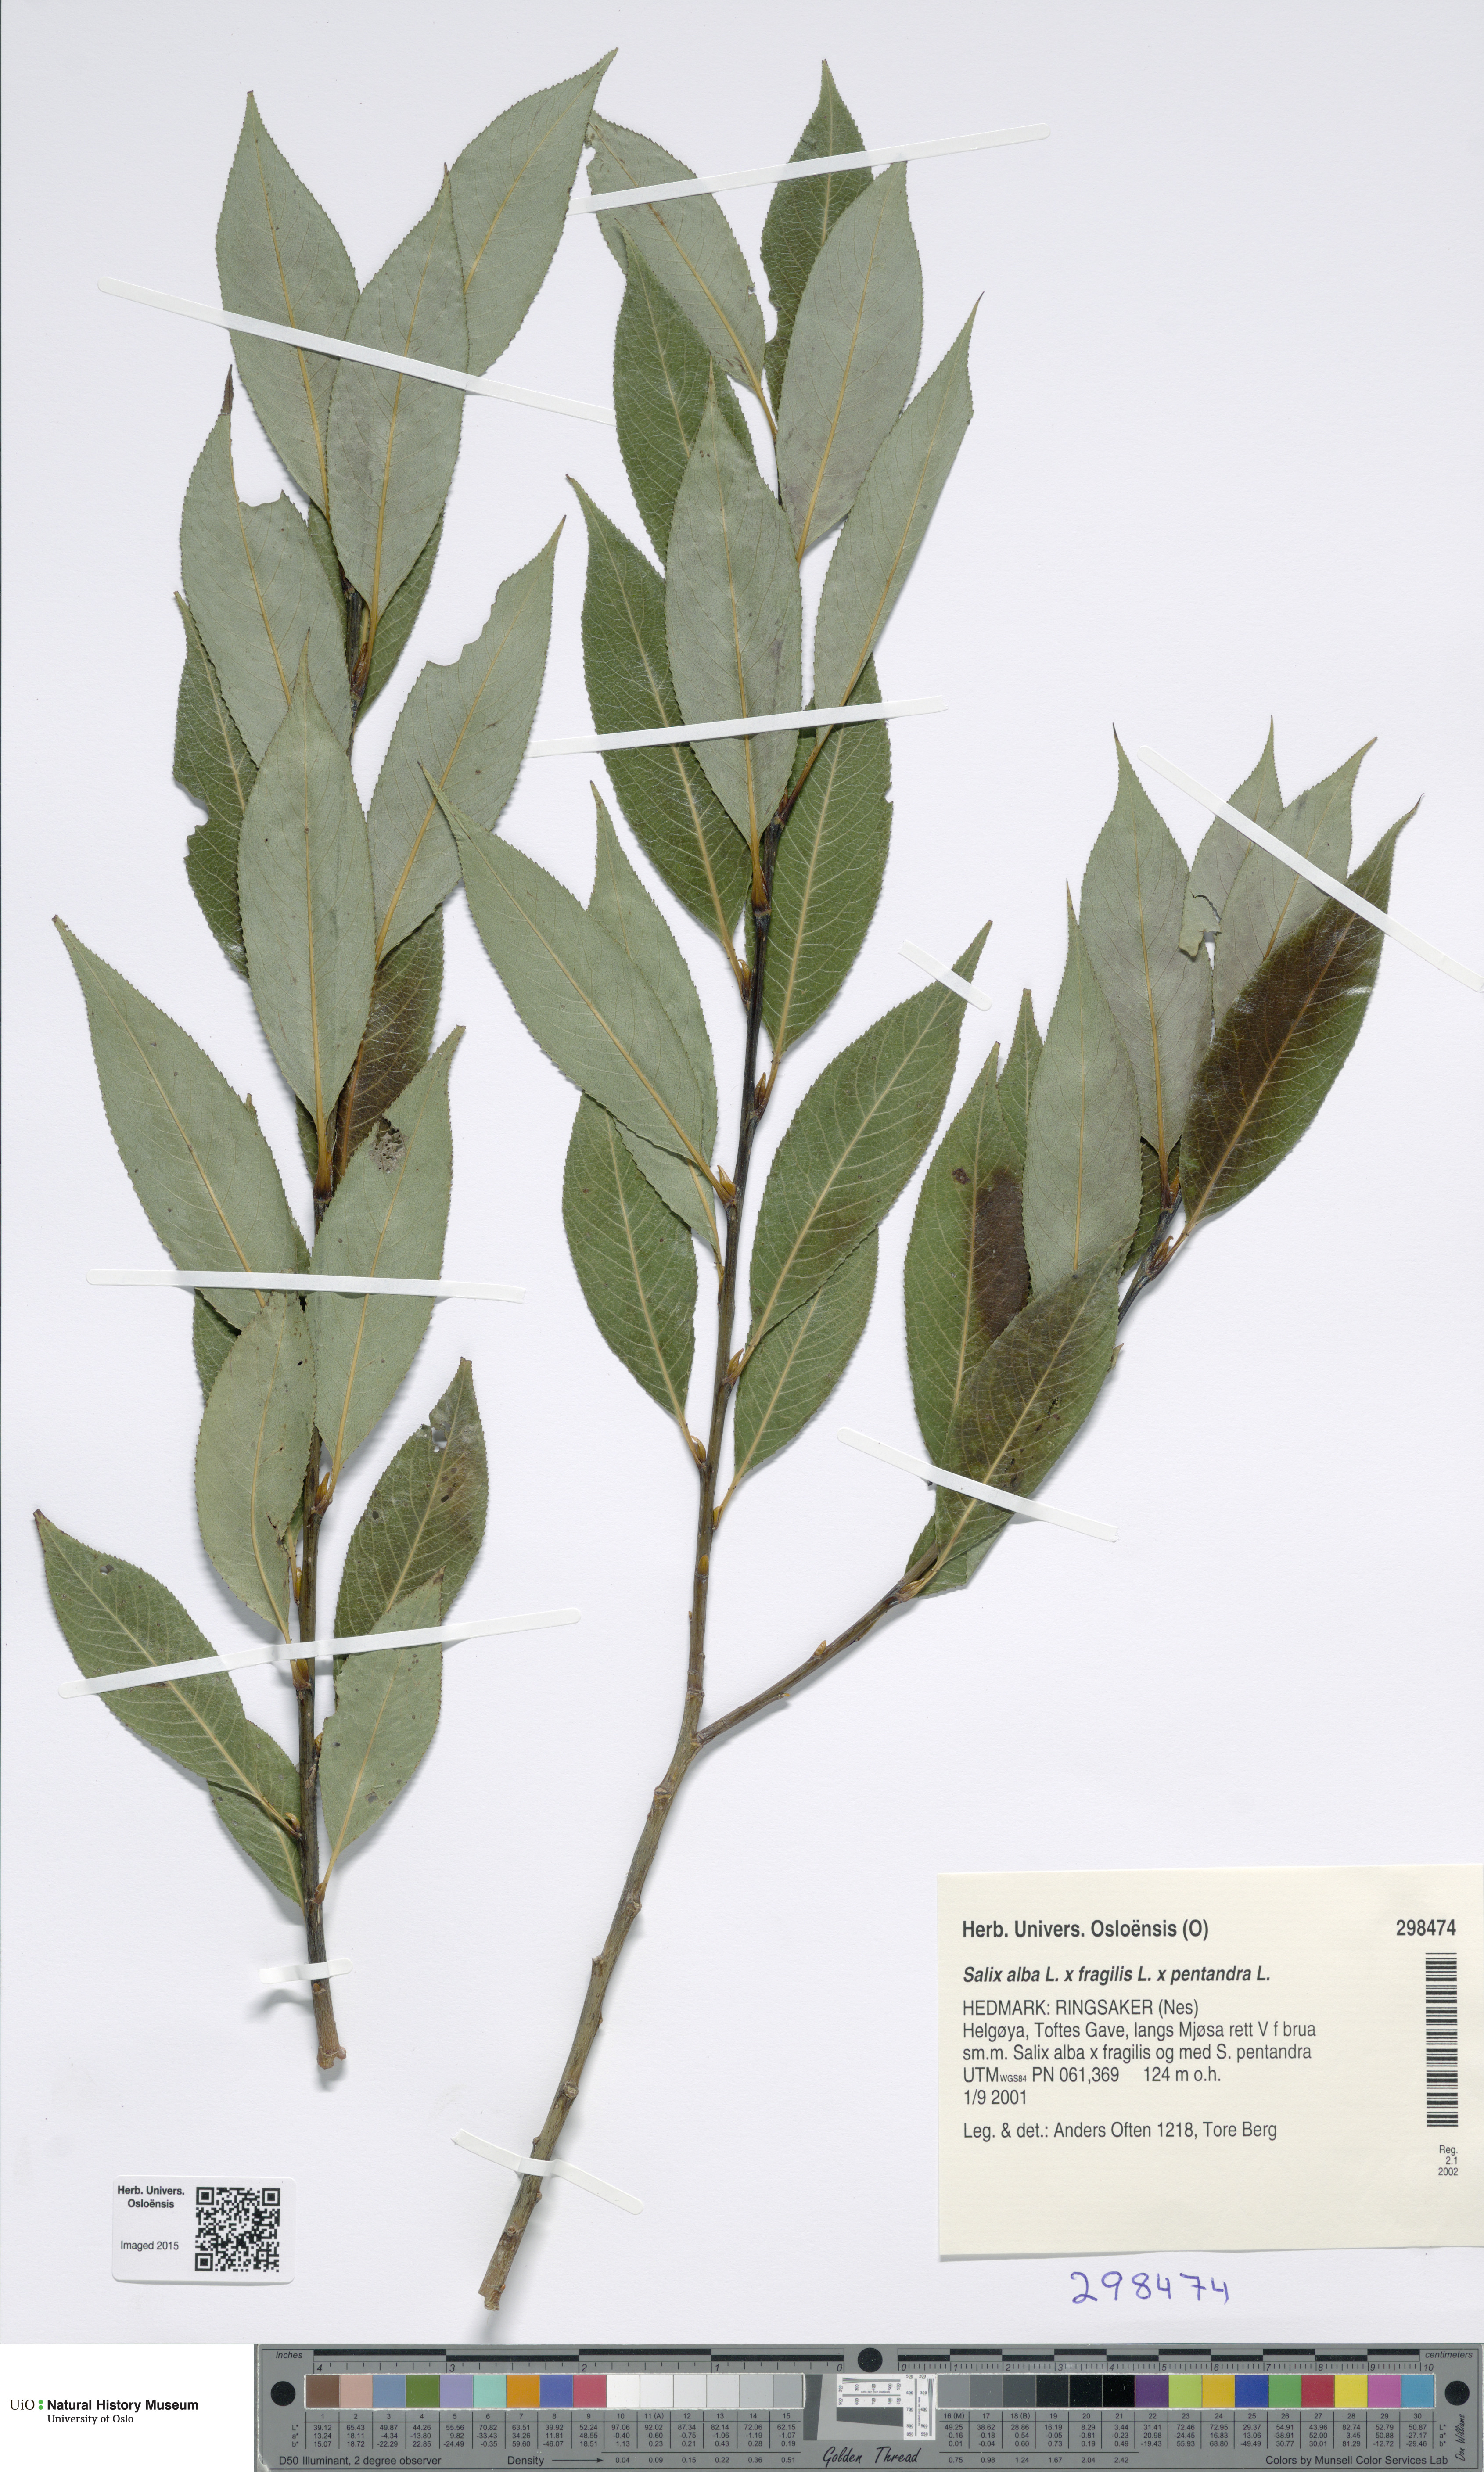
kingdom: Plantae
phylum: Tracheophyta
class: Magnoliopsida
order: Malpighiales
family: Salicaceae
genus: Salix
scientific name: Salix
